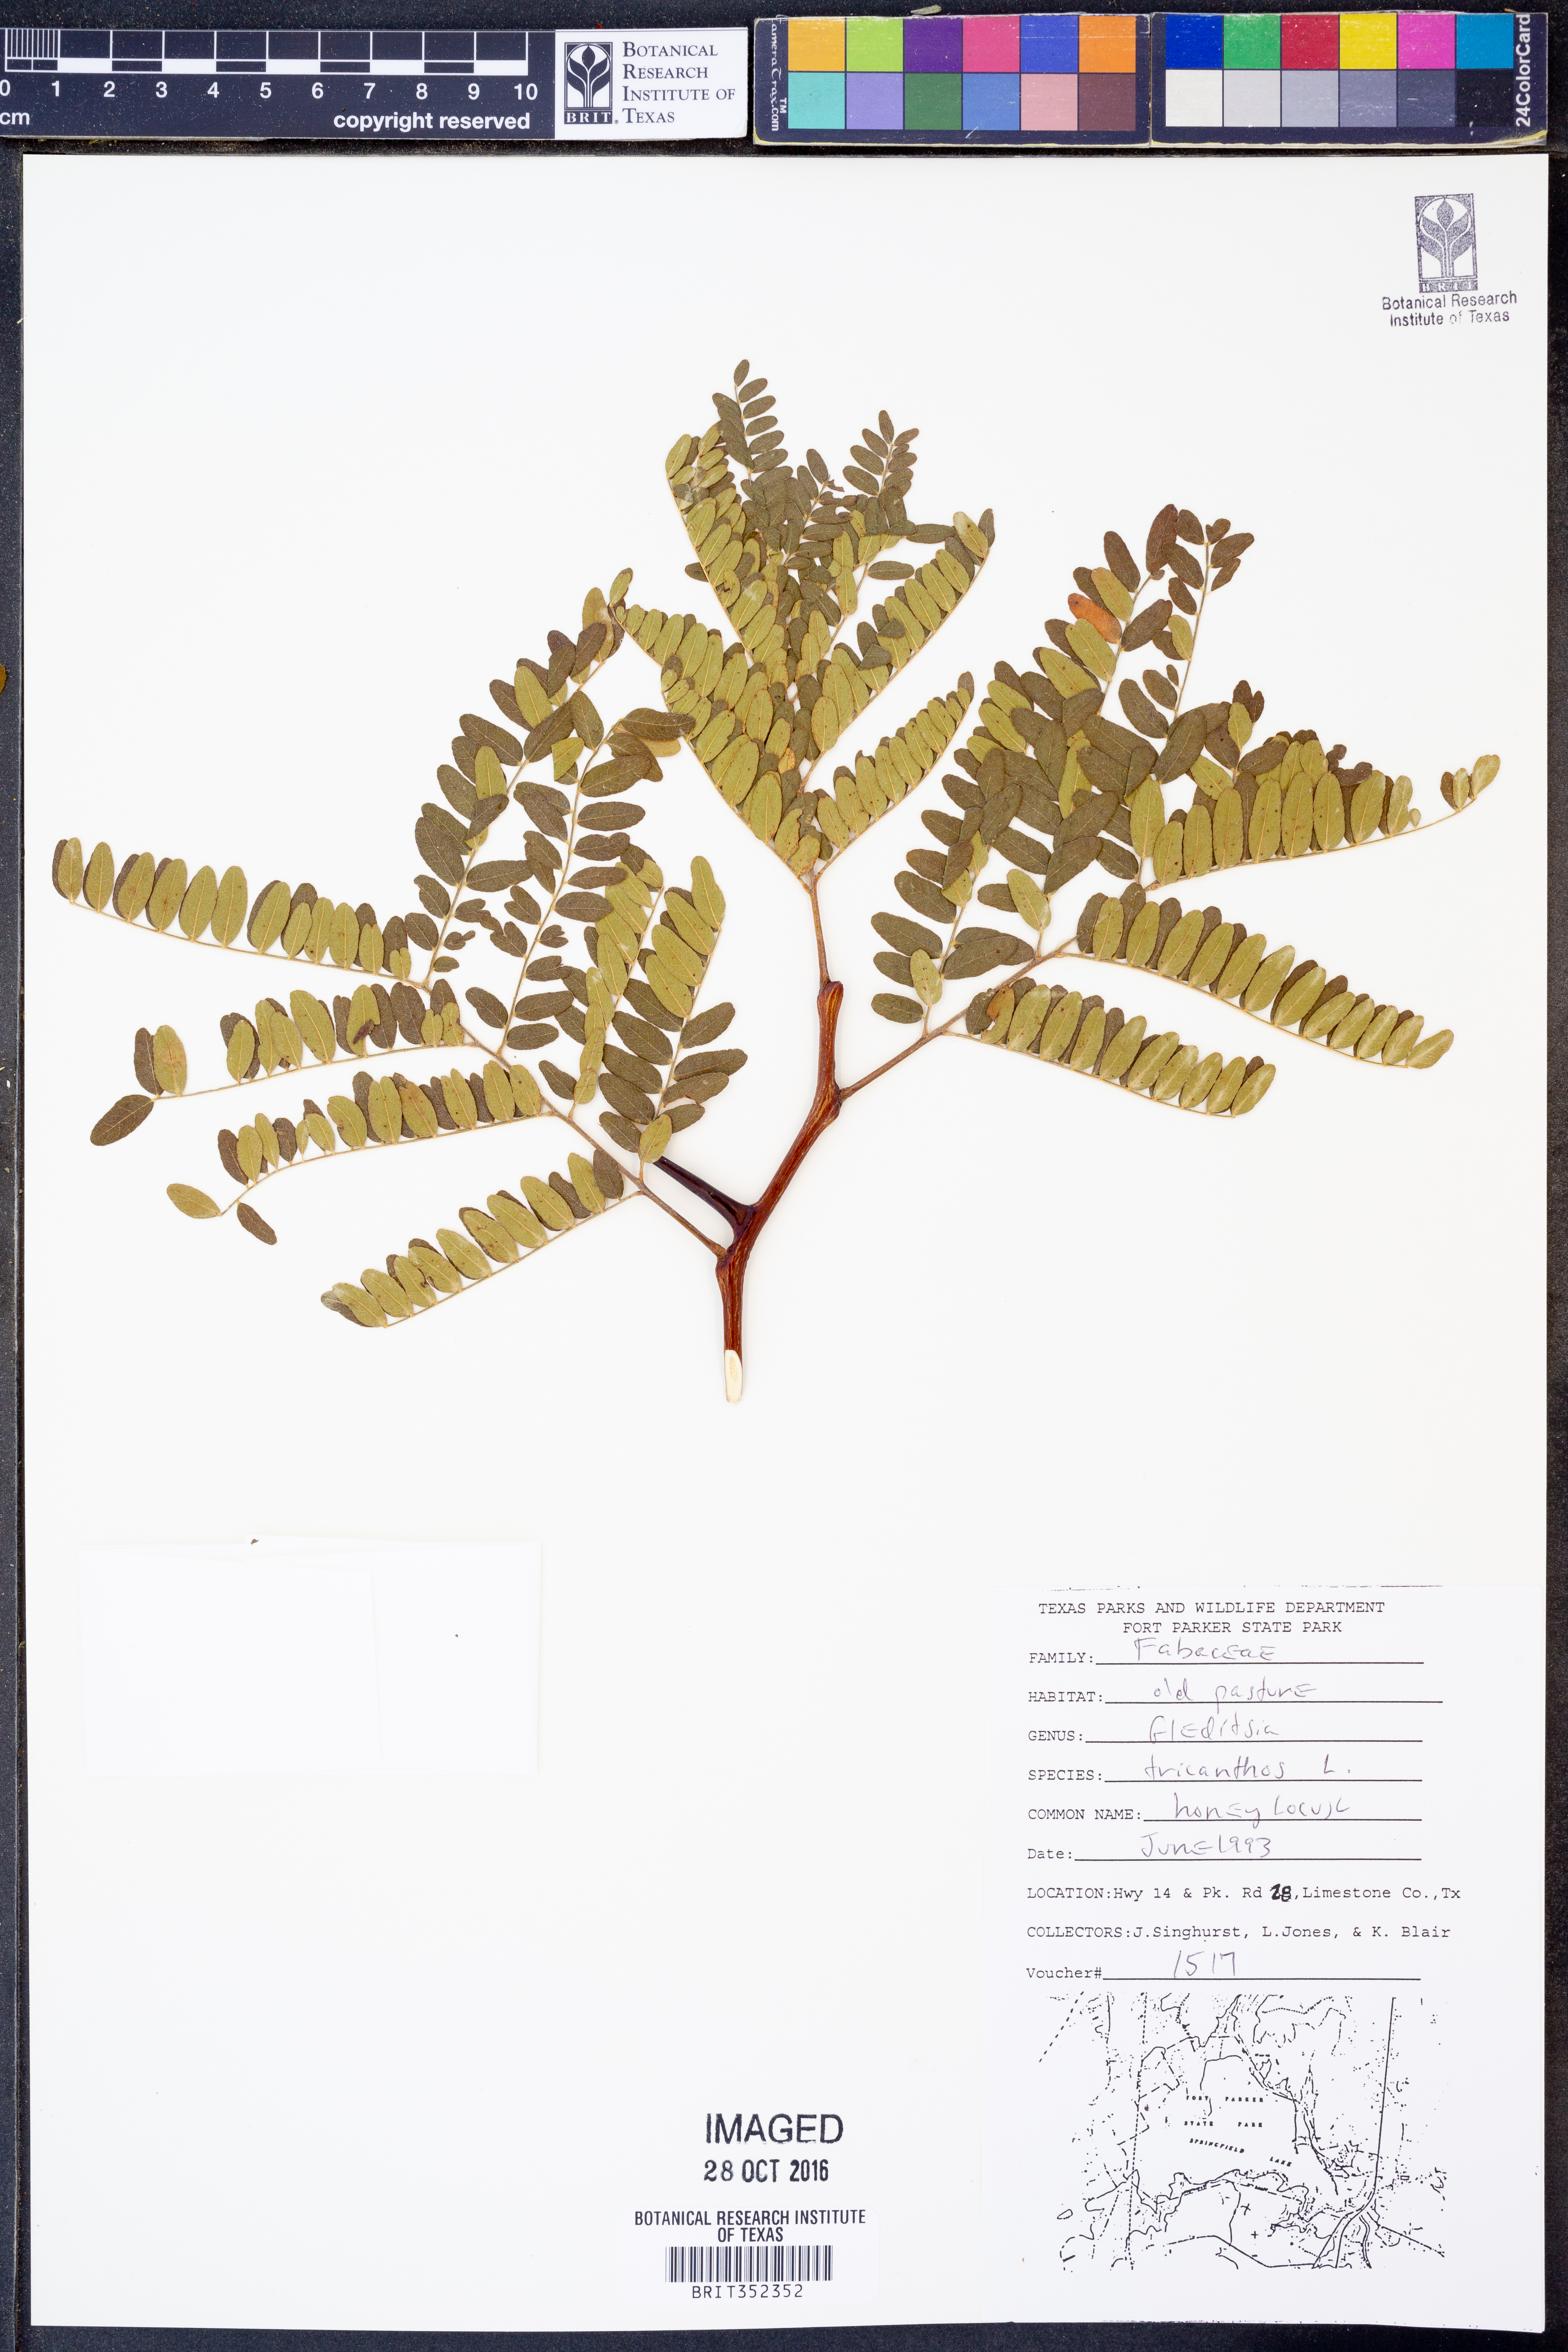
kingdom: Plantae
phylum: Tracheophyta
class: Magnoliopsida
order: Fabales
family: Fabaceae
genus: Gleditsia
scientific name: Gleditsia triacanthos
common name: Common honeylocust
